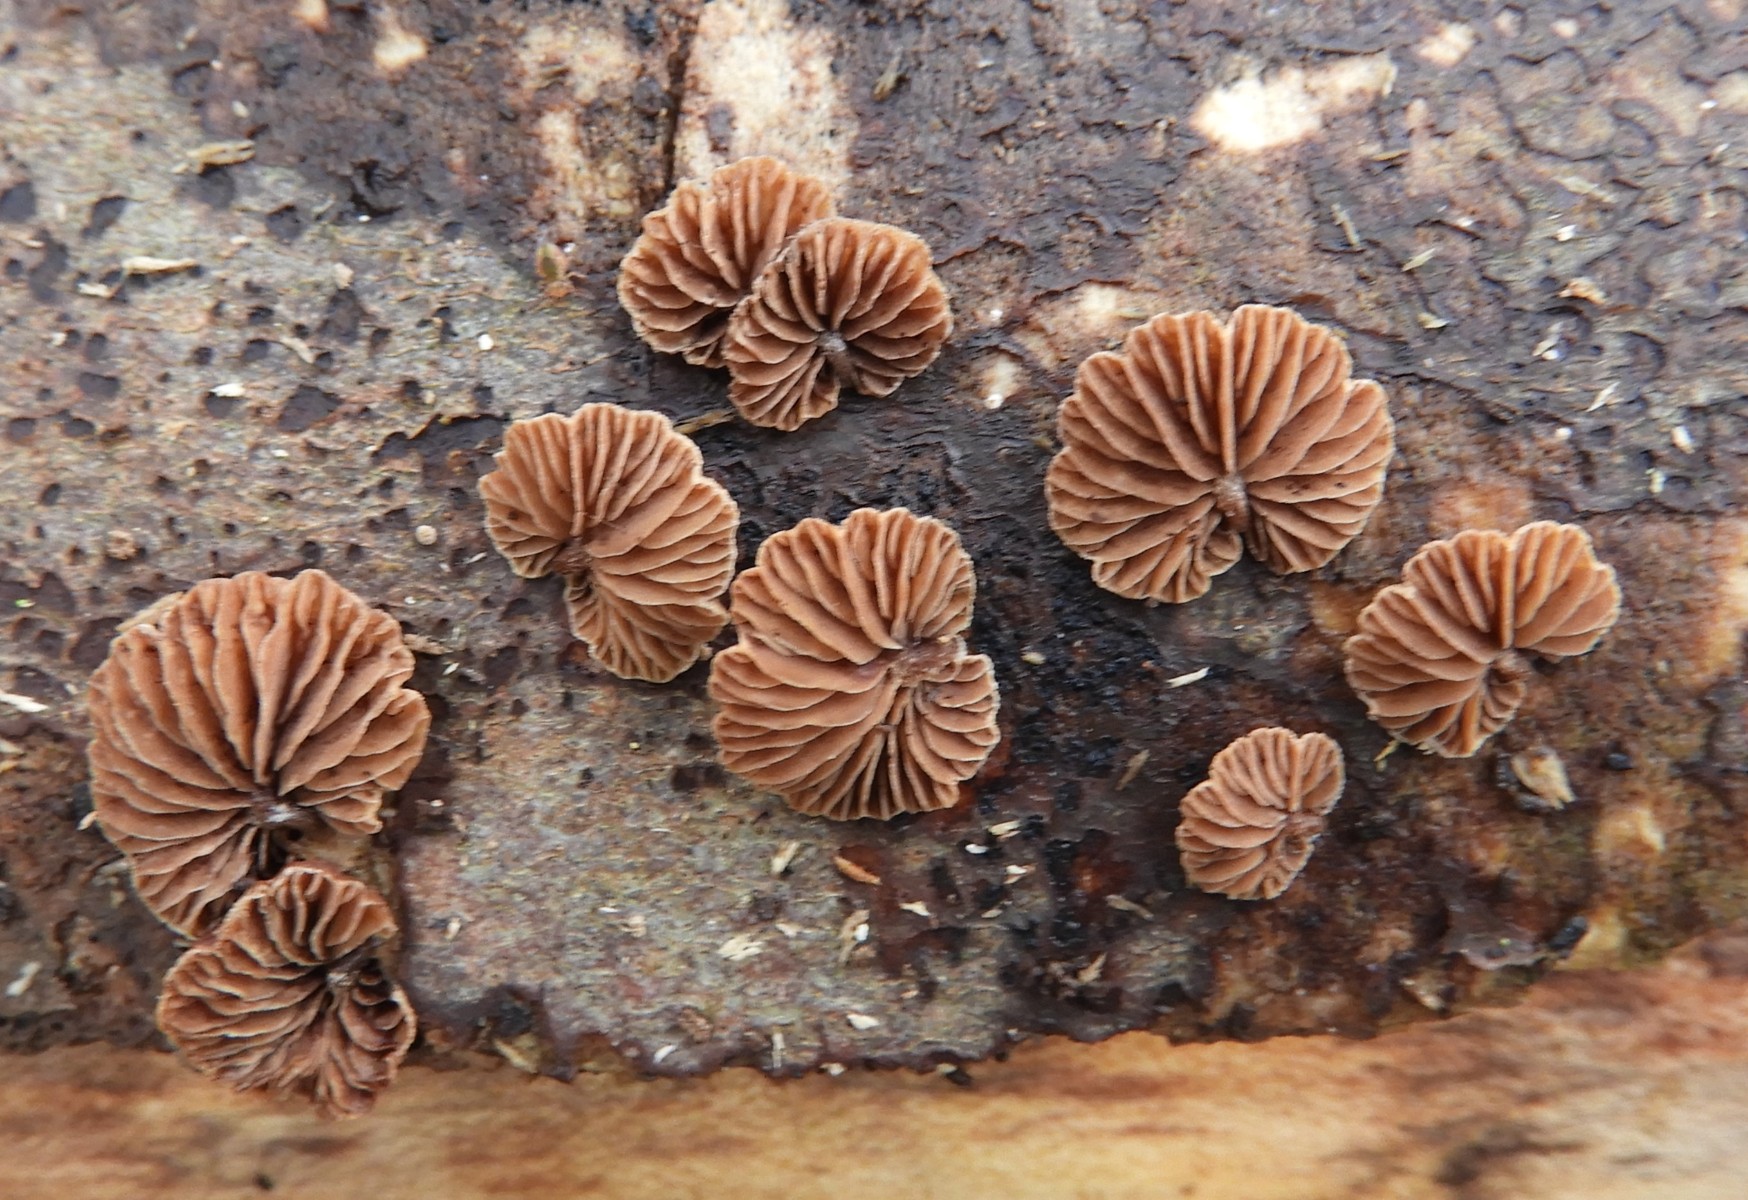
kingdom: Fungi
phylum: Basidiomycota
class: Agaricomycetes
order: Agaricales
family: Strophariaceae
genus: Deconica
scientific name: Deconica horizontalis
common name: ved-stråhat
